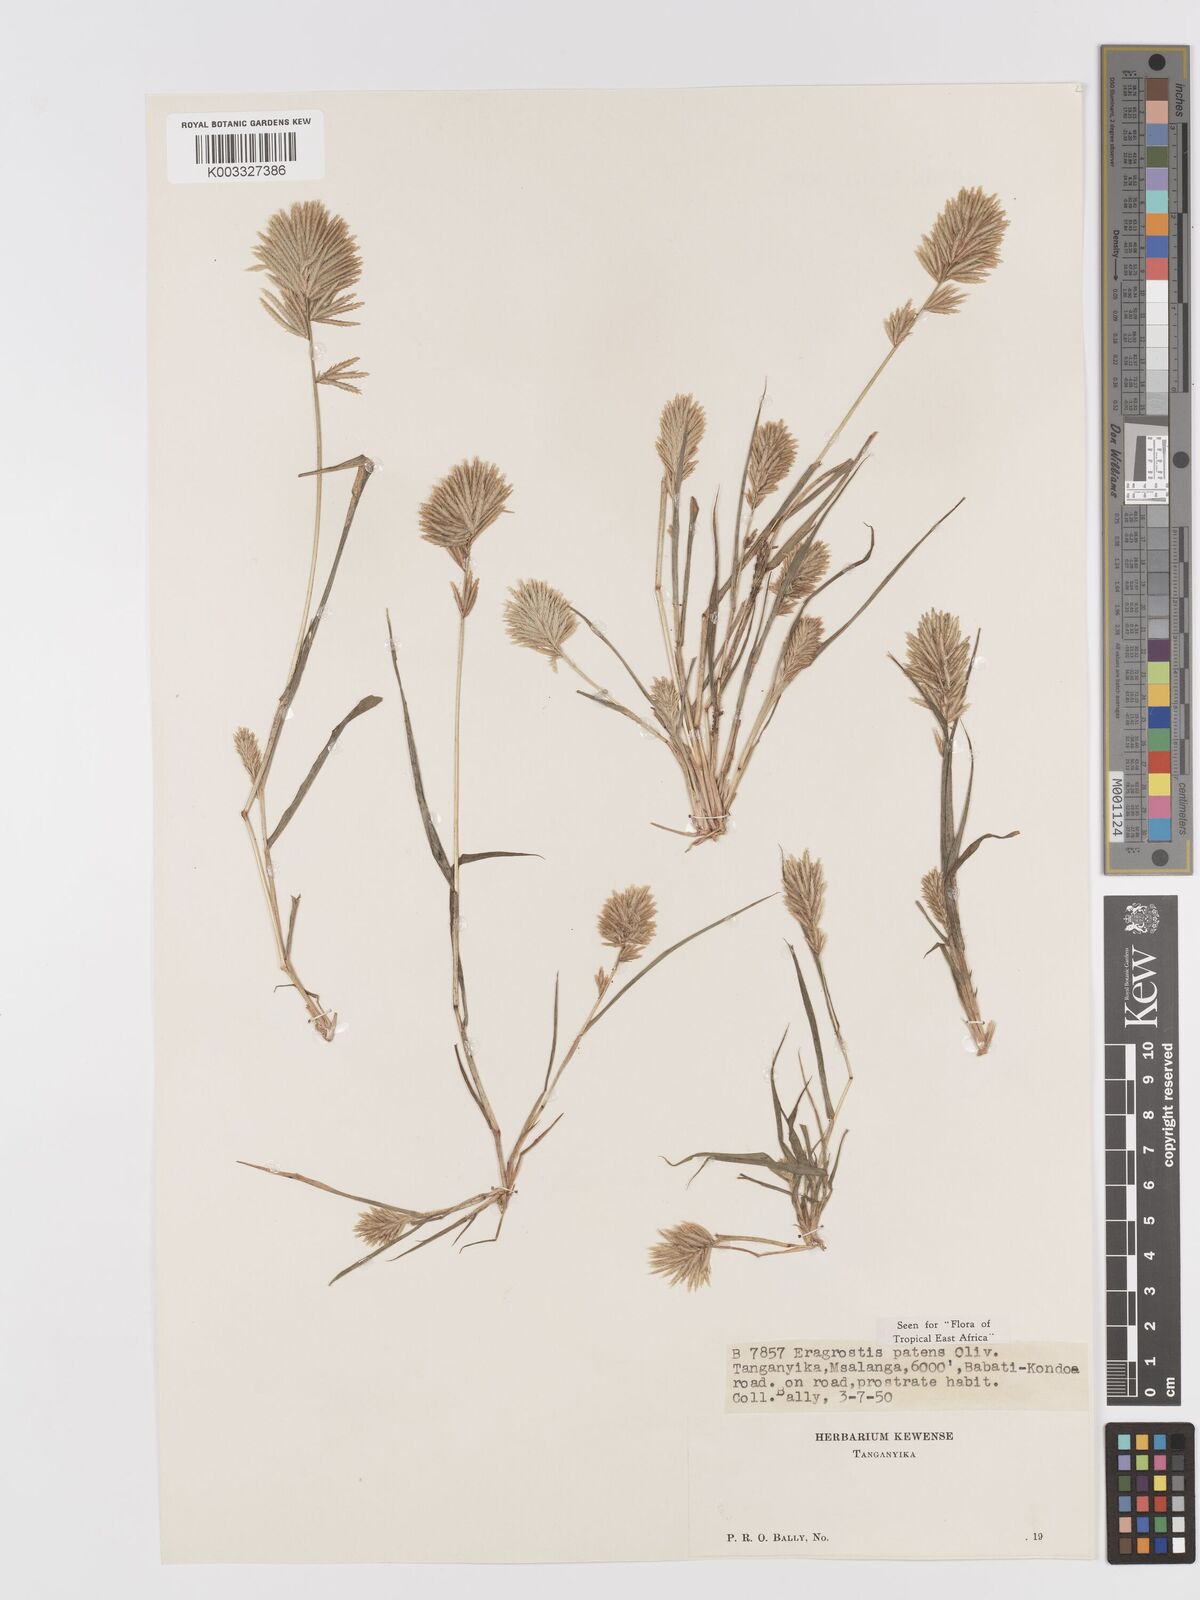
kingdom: Plantae
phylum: Tracheophyta
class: Liliopsida
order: Poales
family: Poaceae
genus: Eragrostis
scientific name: Eragrostis patens
